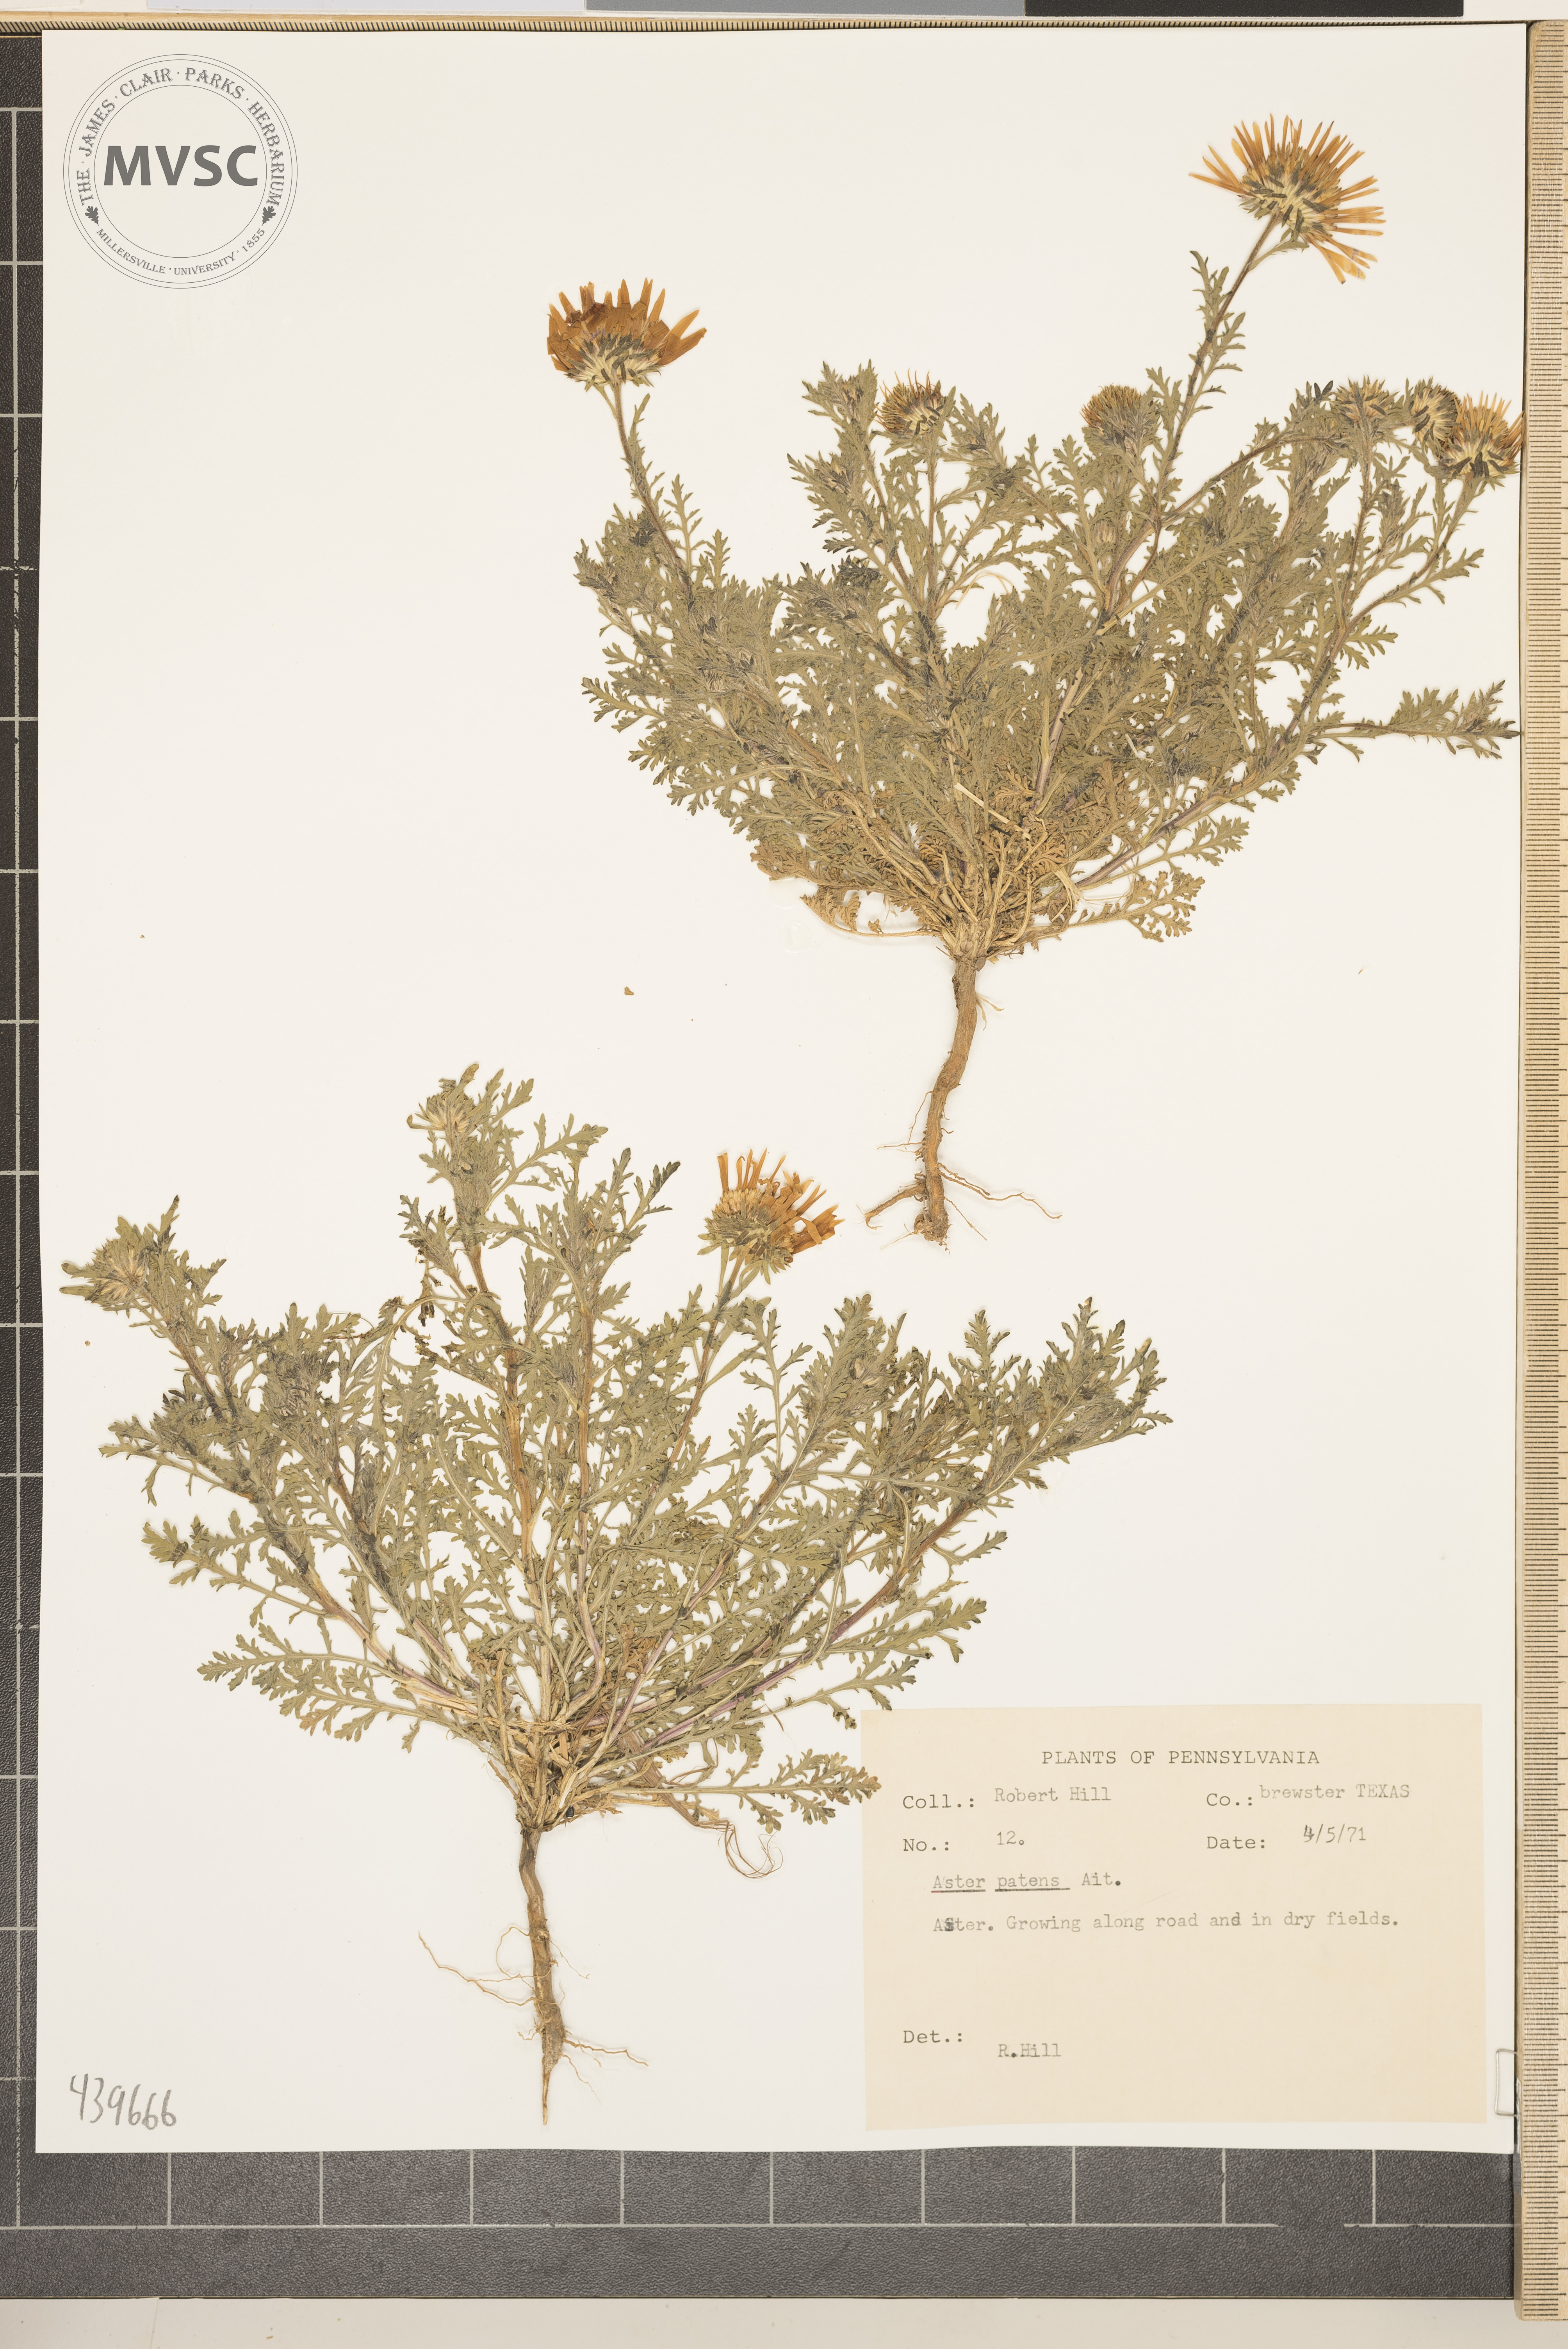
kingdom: Plantae
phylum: Tracheophyta
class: Magnoliopsida
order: Asterales
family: Asteraceae
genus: Symphyotrichum
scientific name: Symphyotrichum patens
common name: Late purple aster
